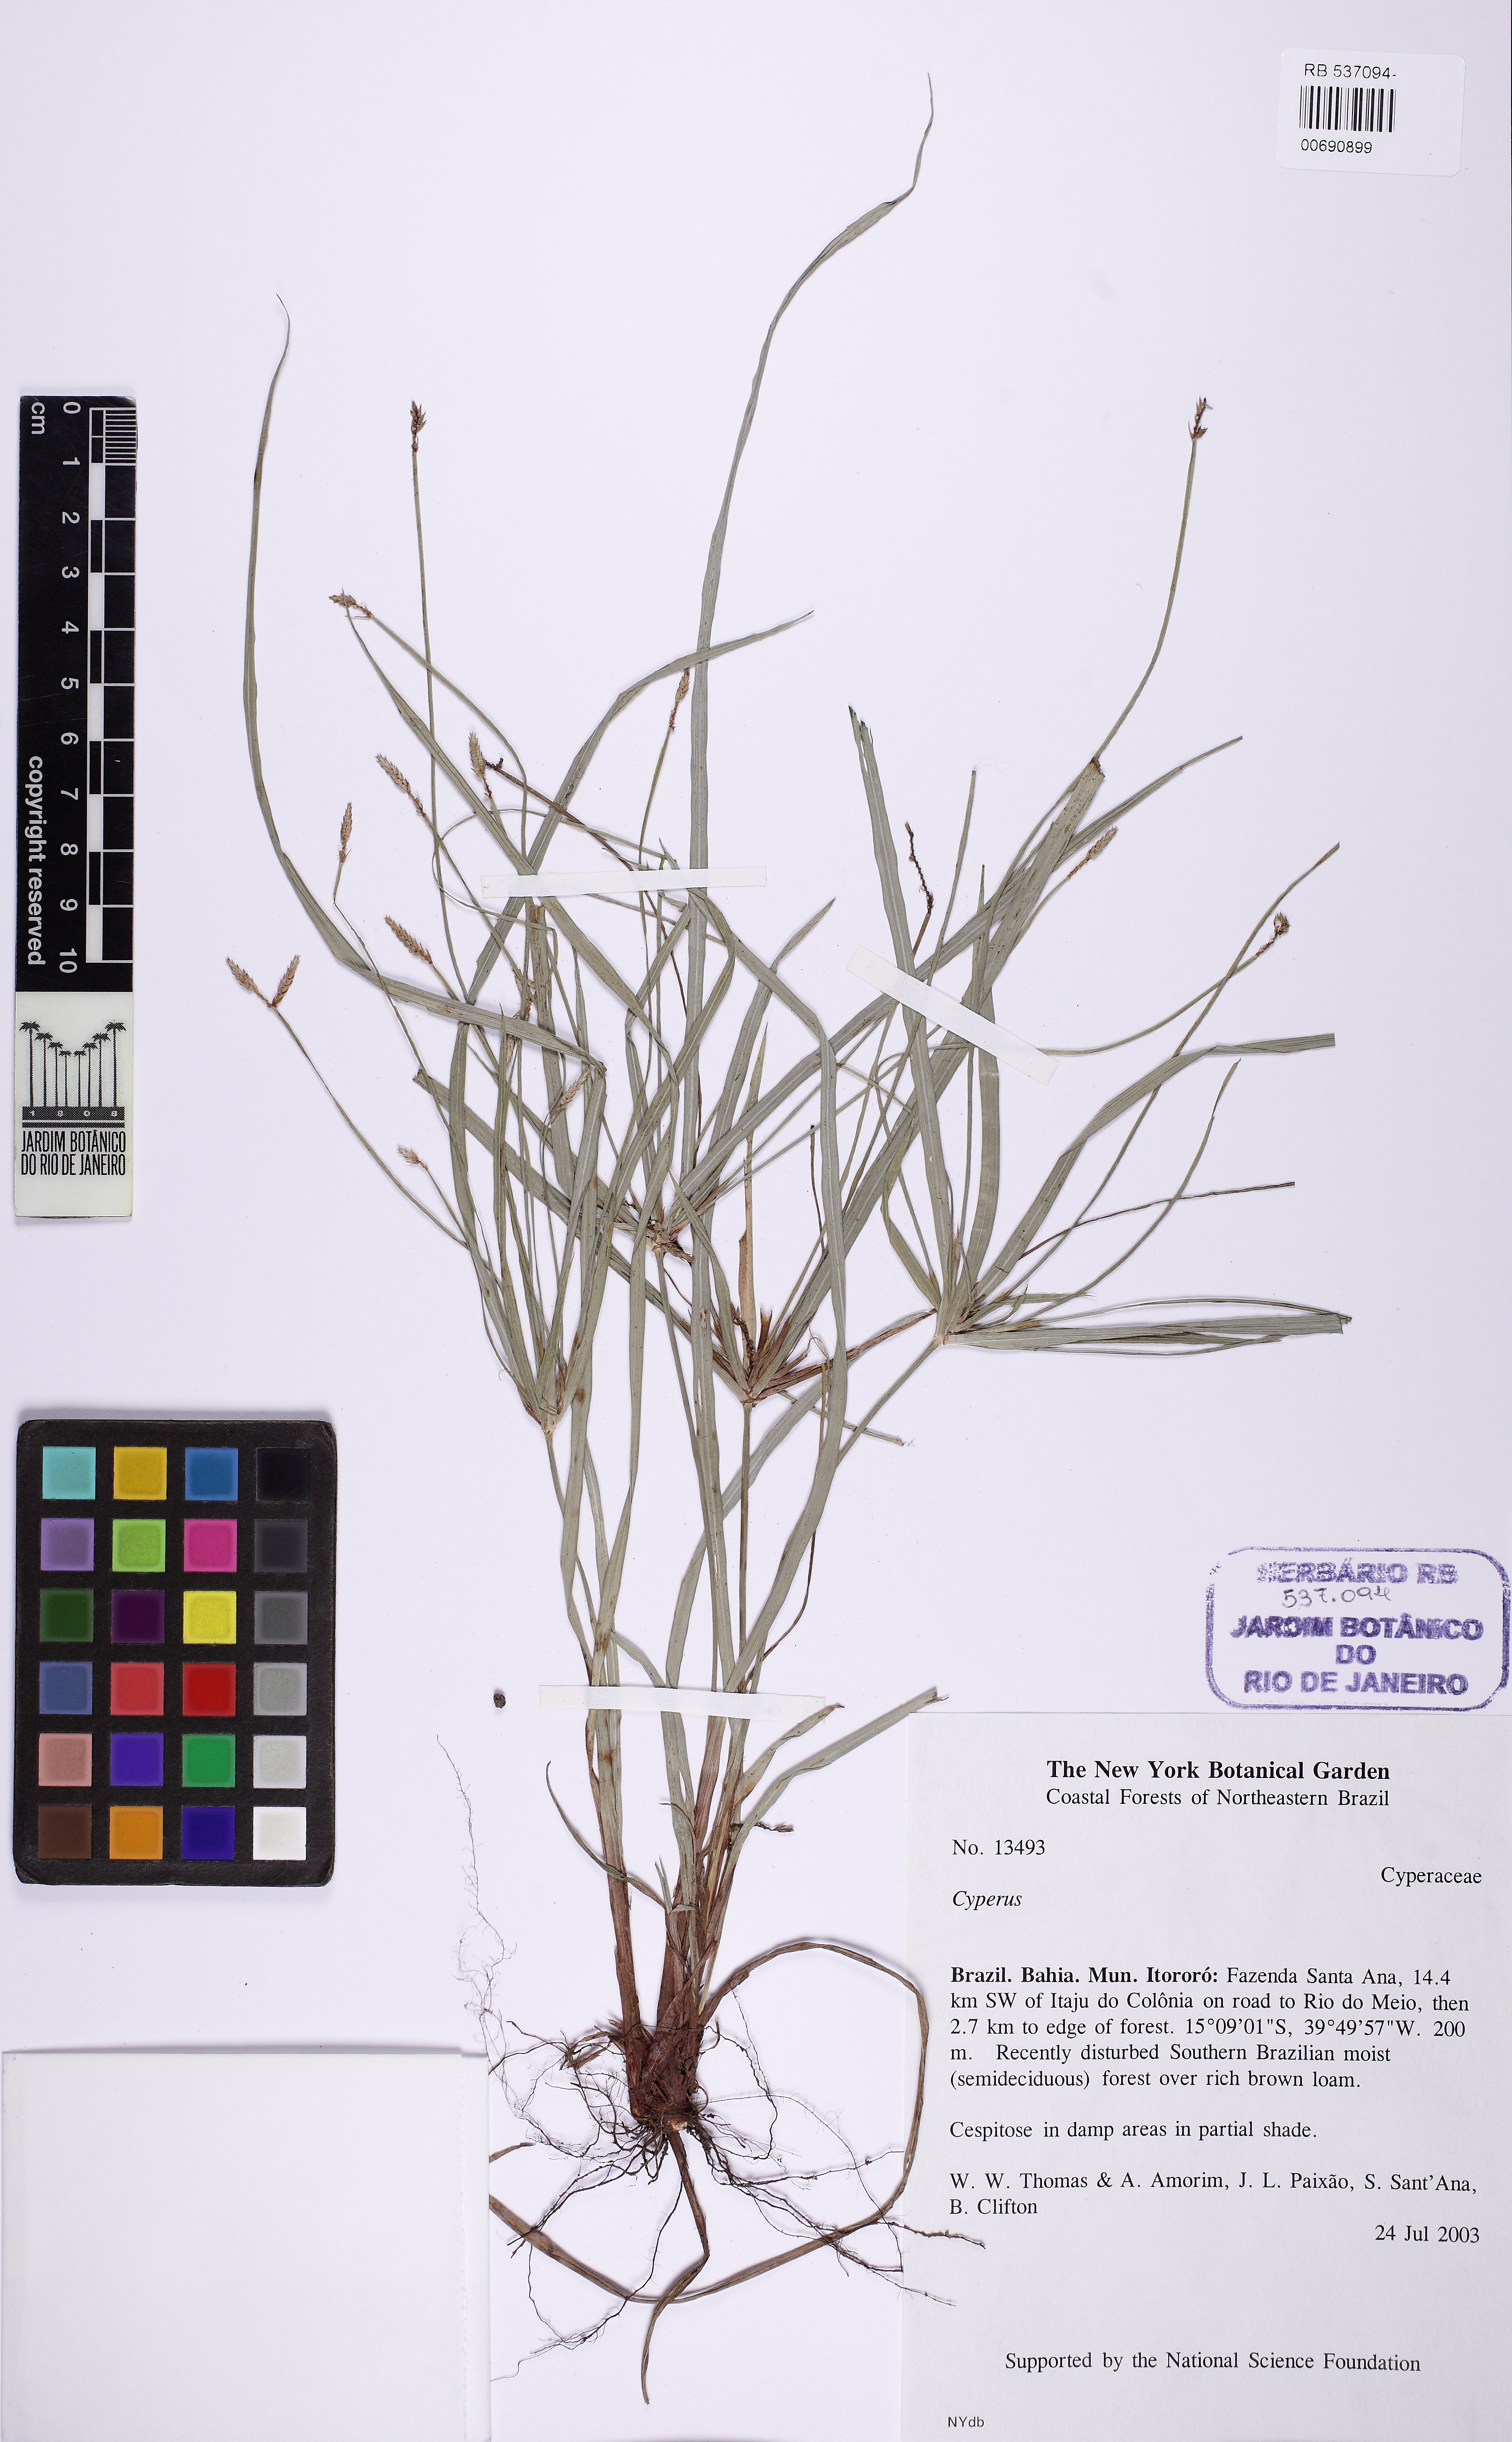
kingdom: Plantae
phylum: Tracheophyta
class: Liliopsida
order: Poales
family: Cyperaceae
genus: Cyperus
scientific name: Cyperus simplex
